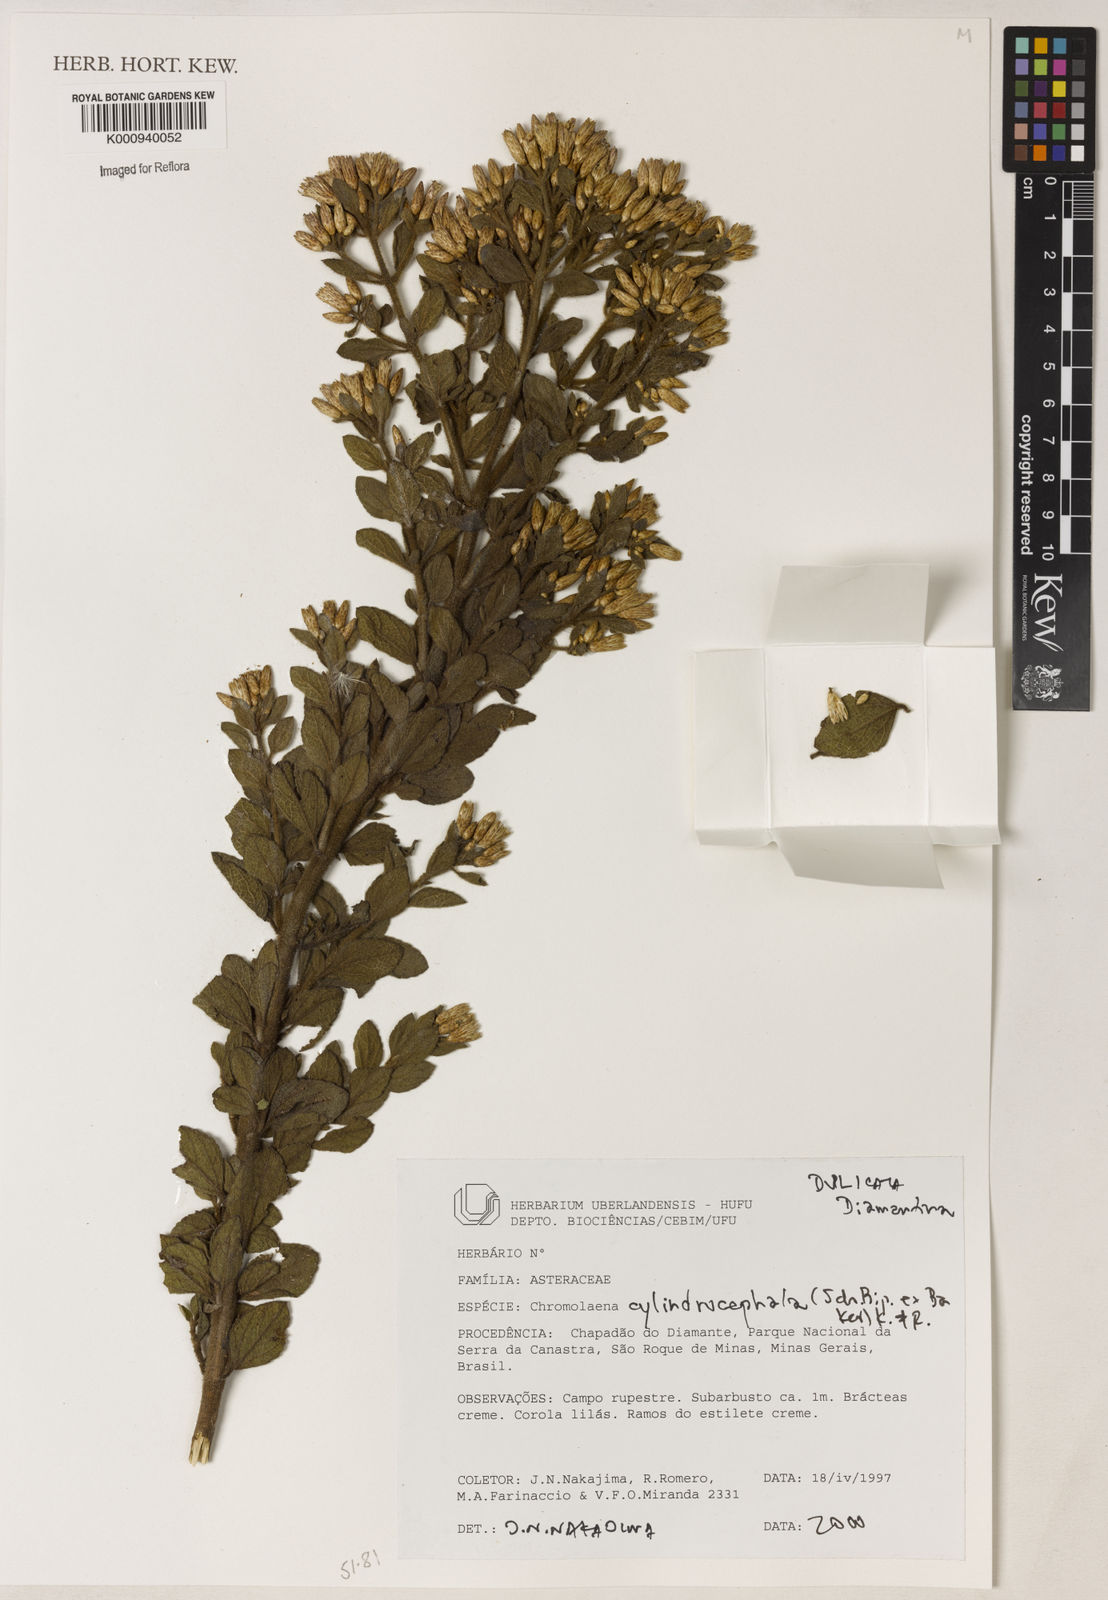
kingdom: Plantae
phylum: Tracheophyta
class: Magnoliopsida
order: Asterales
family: Asteraceae
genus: Chromolaena
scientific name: Chromolaena cylindrocephala
